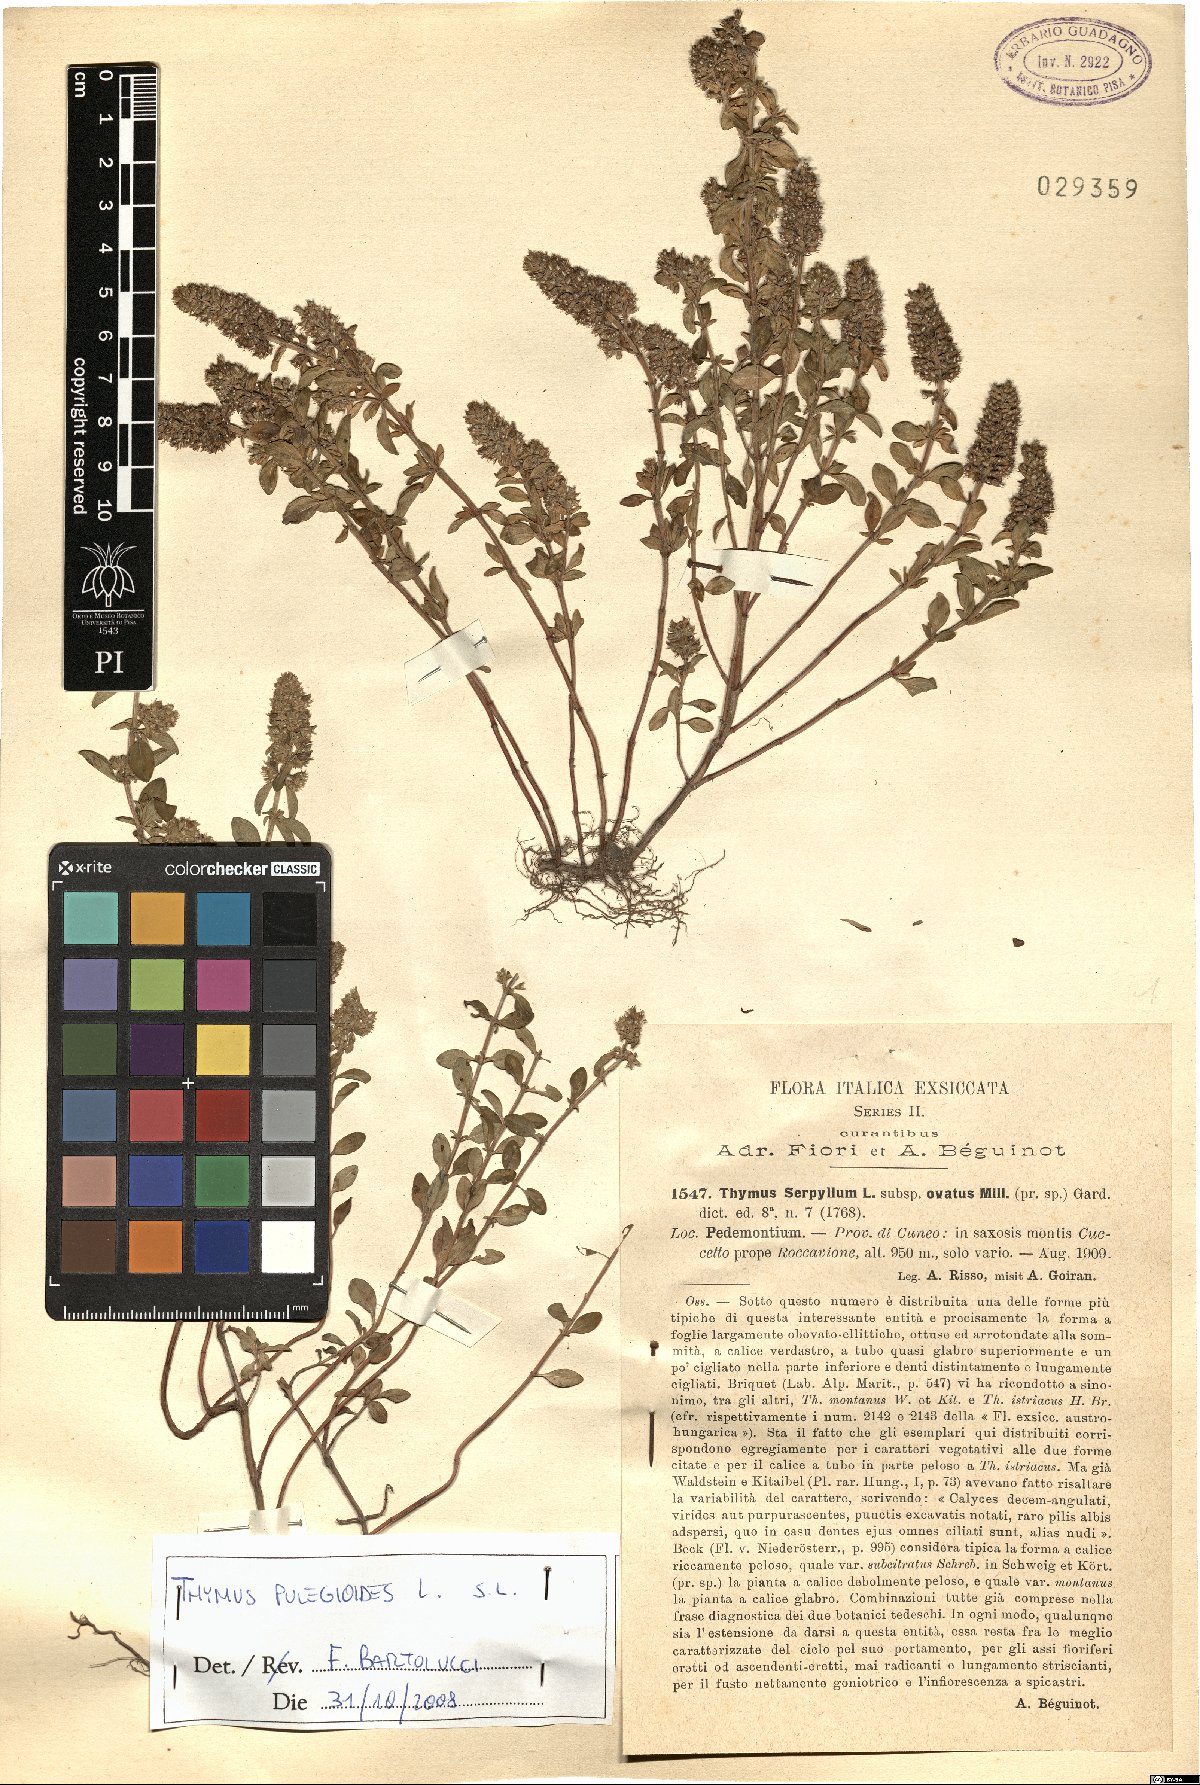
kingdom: Plantae
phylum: Tracheophyta
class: Magnoliopsida
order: Lamiales
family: Lamiaceae
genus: Thymus
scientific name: Thymus pulegioides
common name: Large thyme
